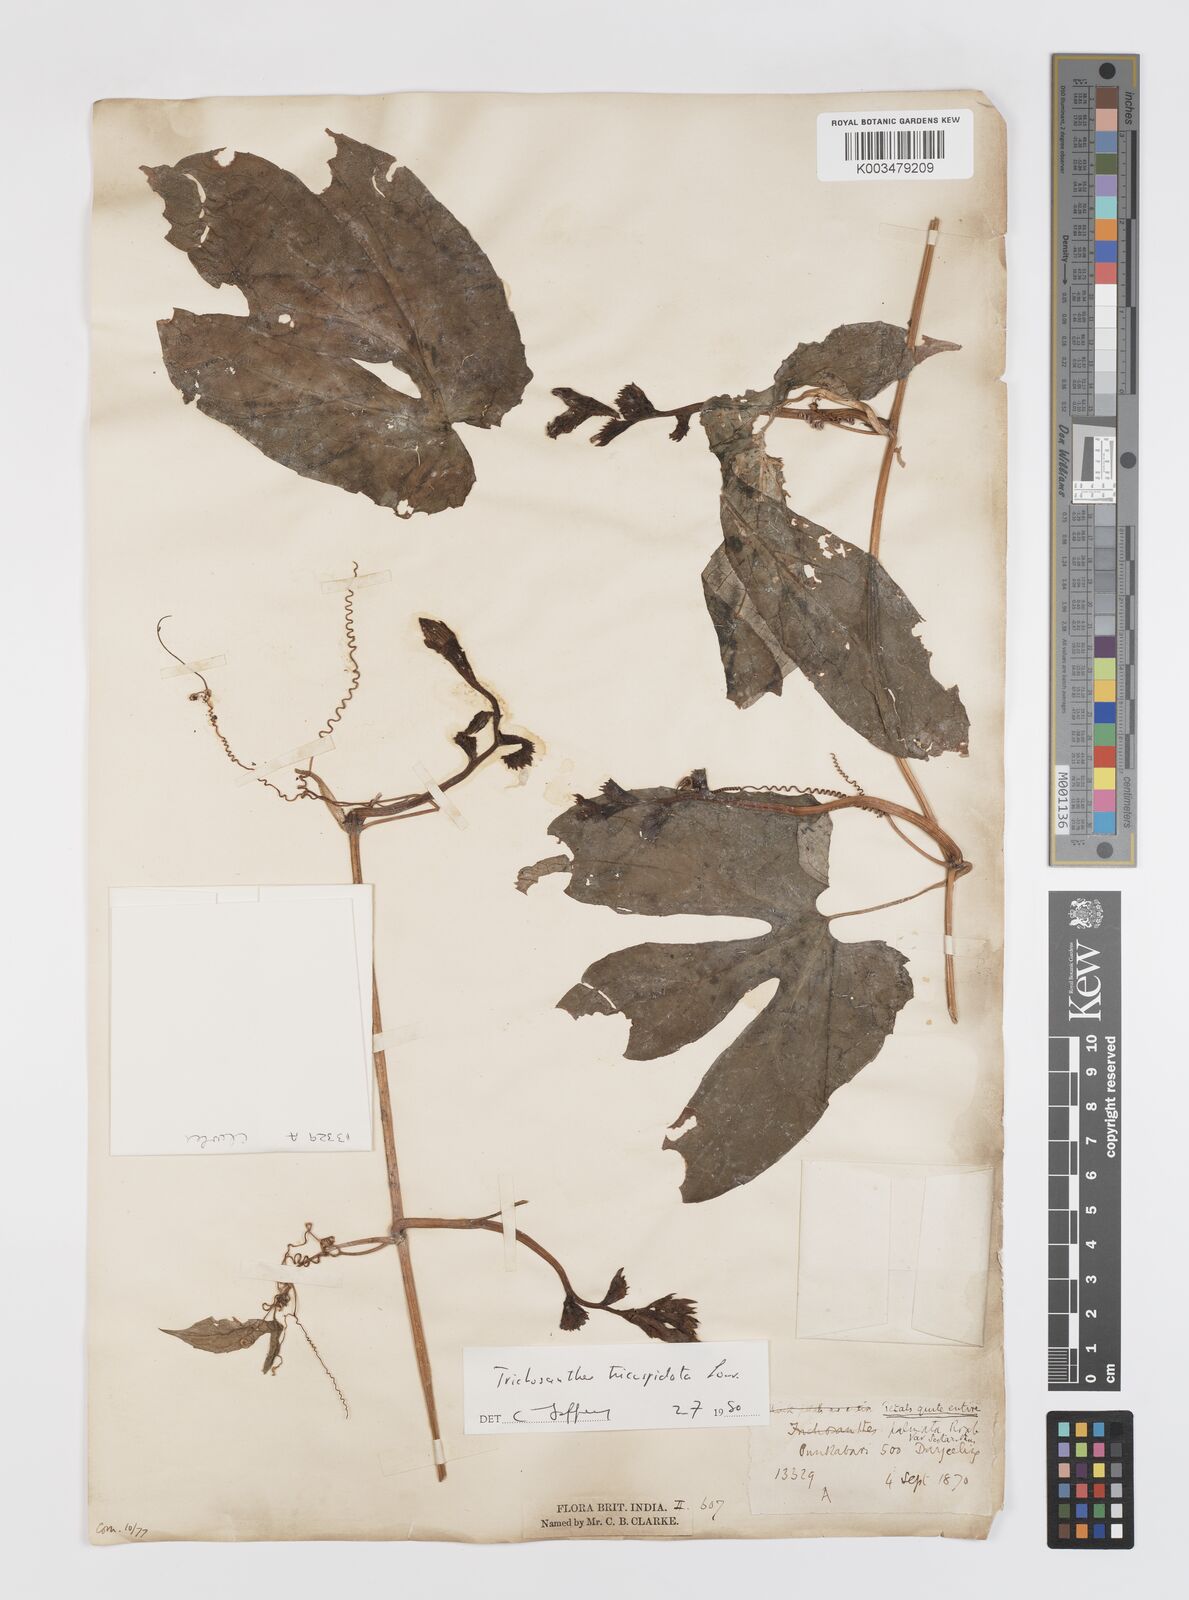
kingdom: Plantae
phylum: Tracheophyta
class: Magnoliopsida
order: Cucurbitales
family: Cucurbitaceae
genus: Trichosanthes
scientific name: Trichosanthes tricuspidata
